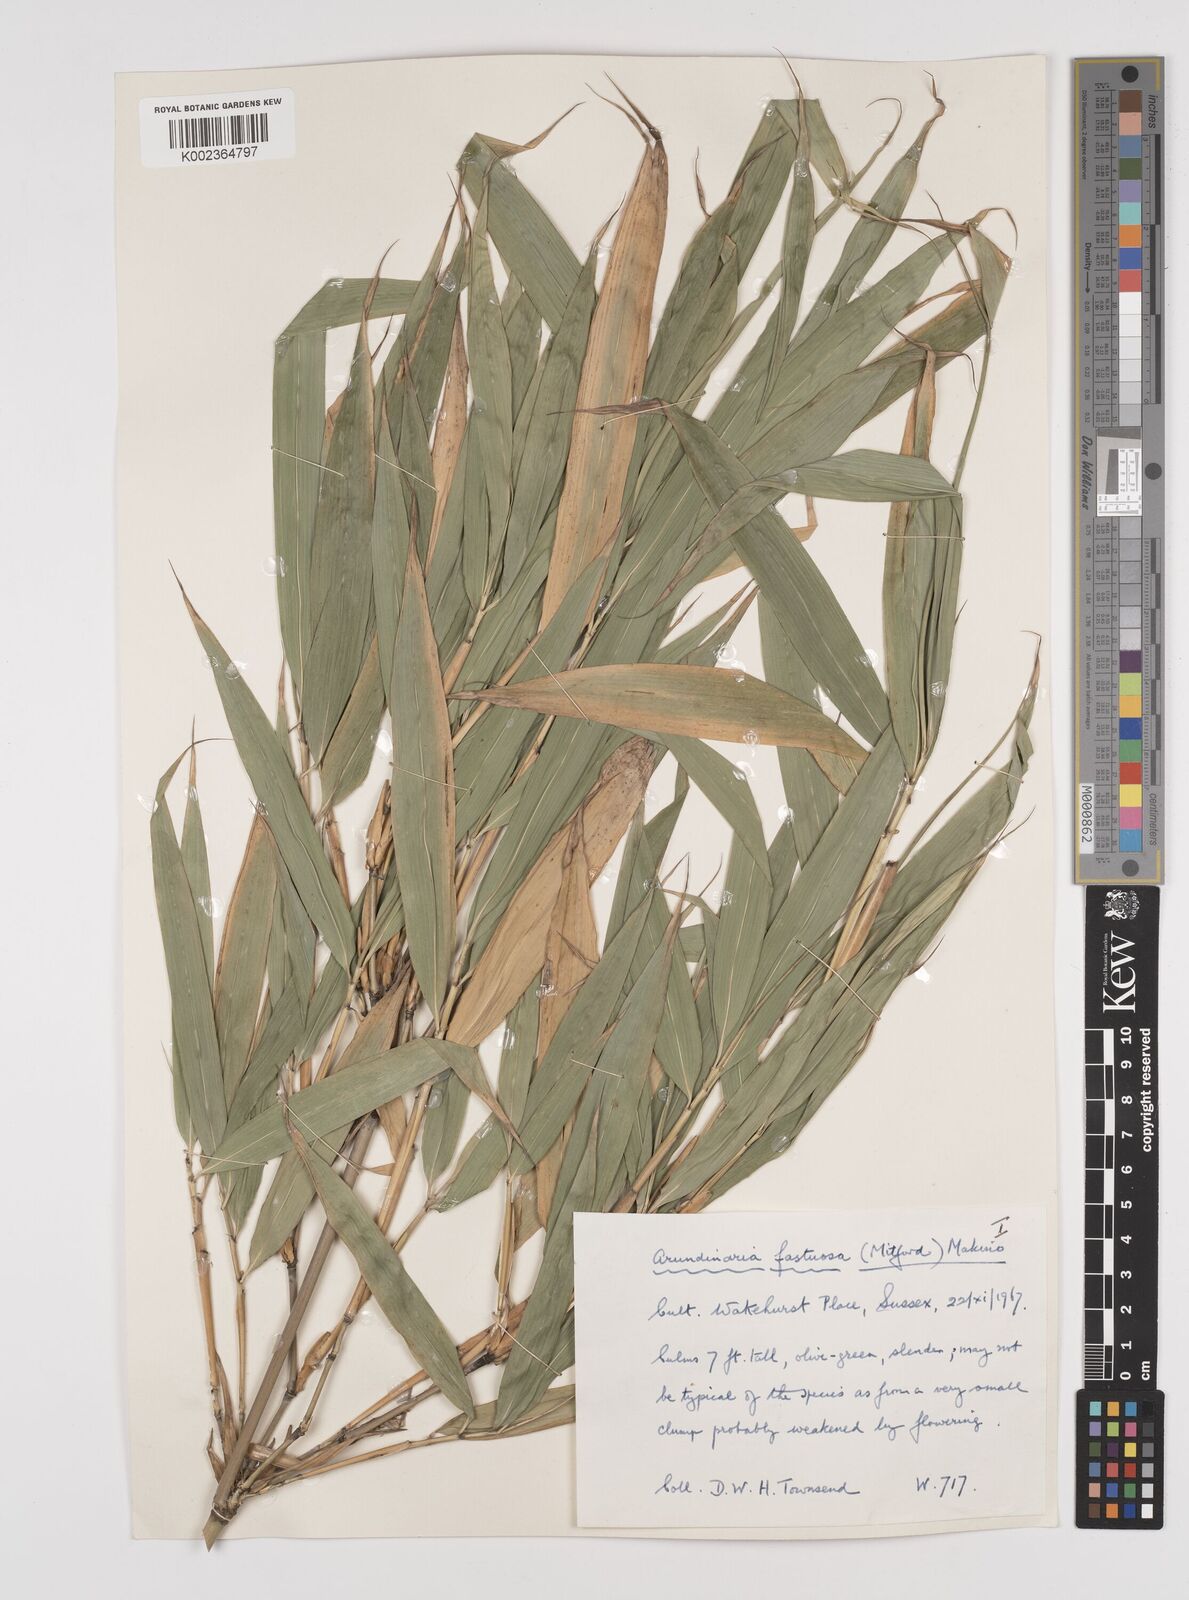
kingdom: Plantae
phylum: Tracheophyta
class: Liliopsida
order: Poales
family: Poaceae
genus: Semiarundinaria
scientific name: Semiarundinaria
